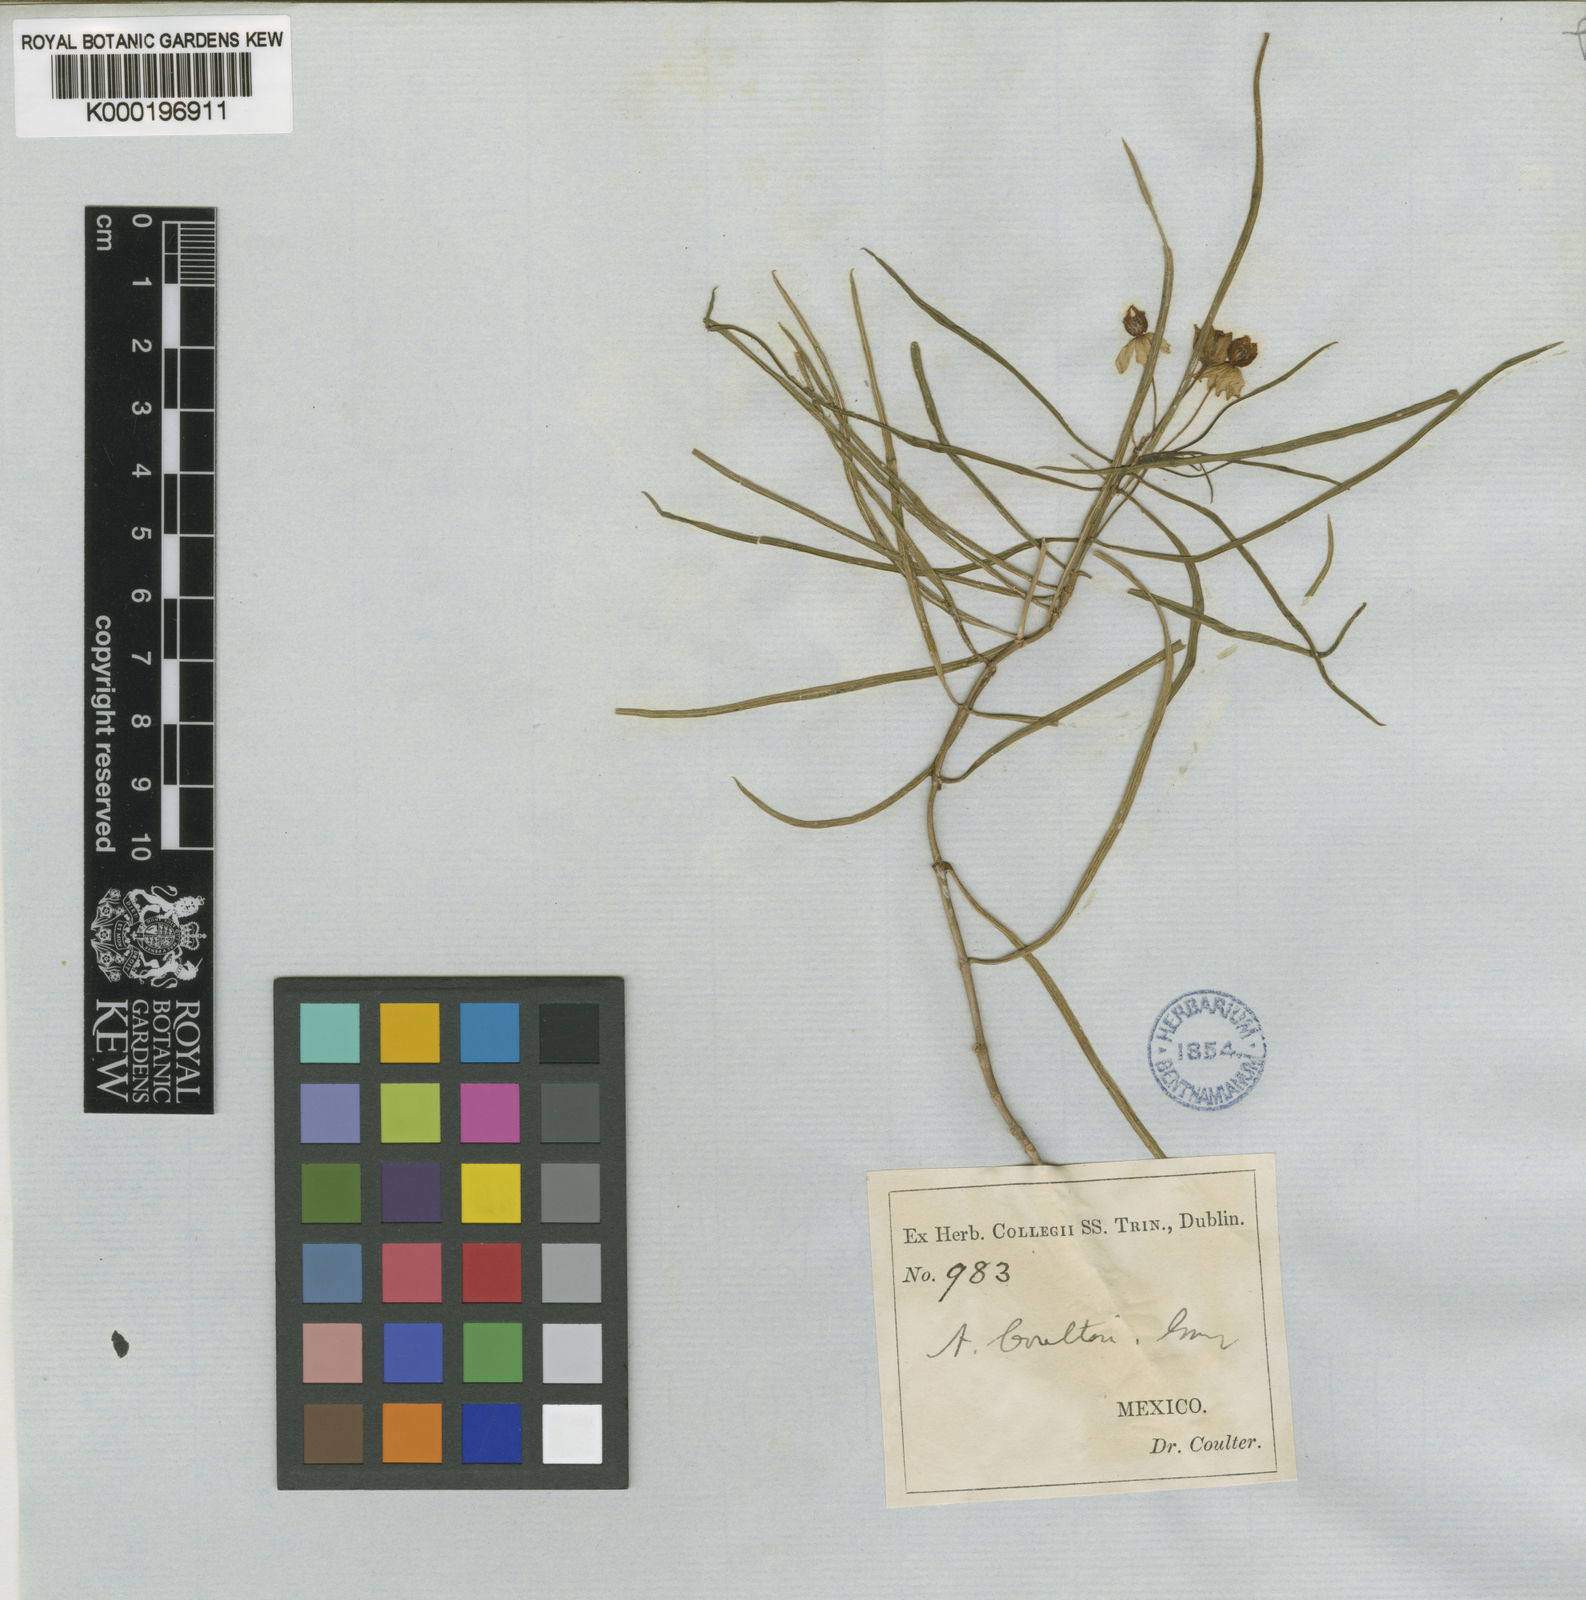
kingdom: Plantae
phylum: Tracheophyta
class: Magnoliopsida
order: Gentianales
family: Apocynaceae
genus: Asclepias
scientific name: Asclepias coulteri
